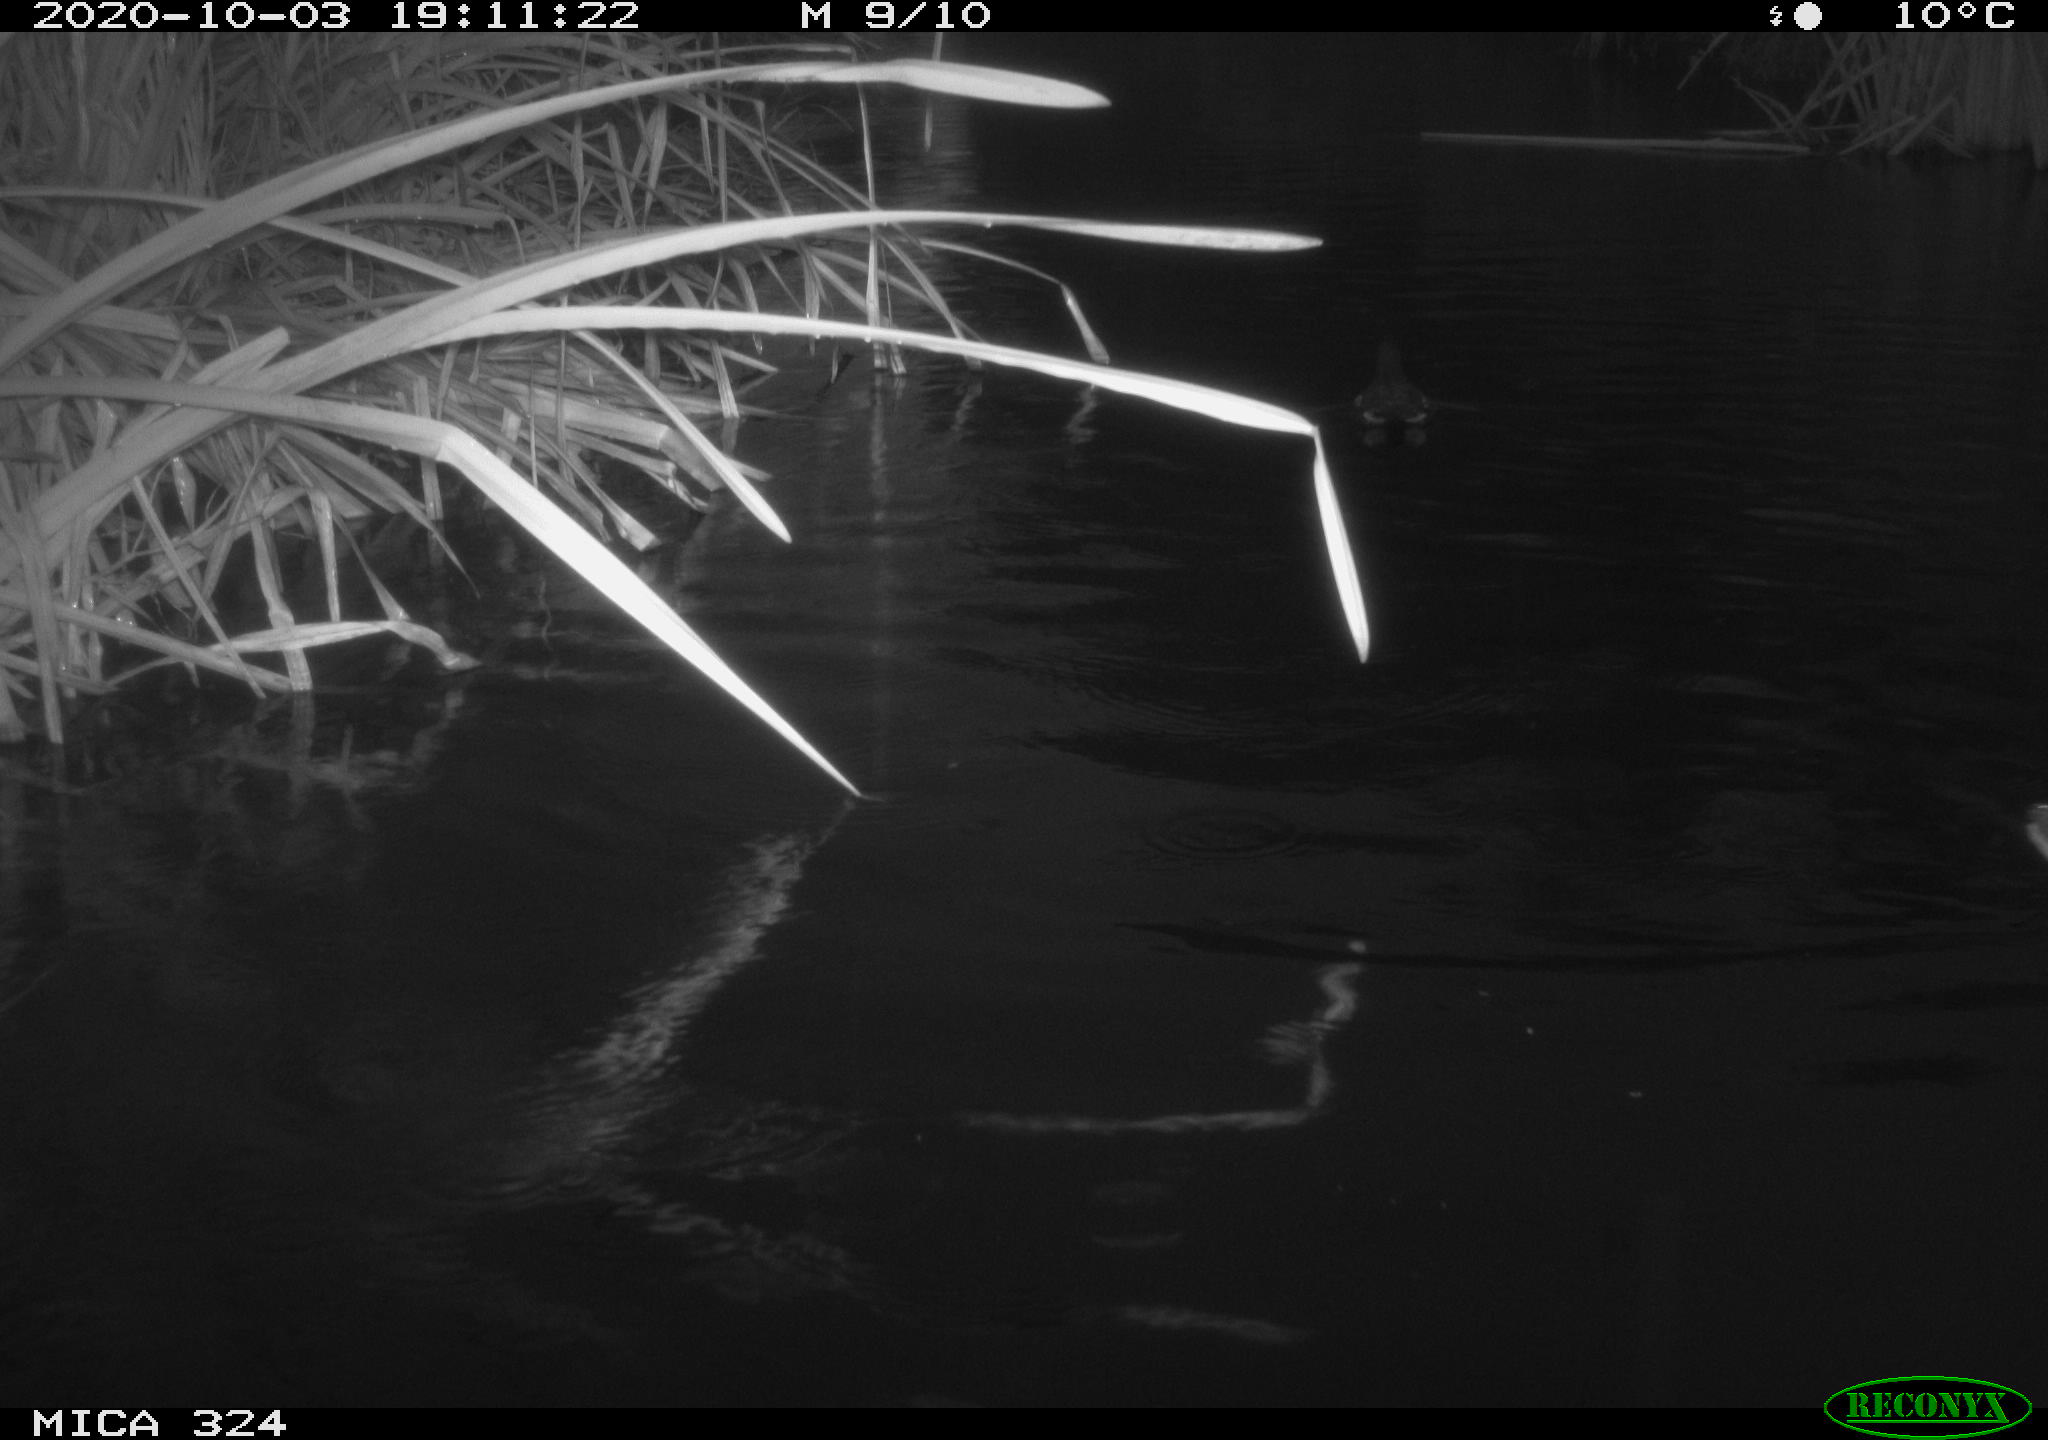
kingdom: Animalia
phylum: Chordata
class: Aves
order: Gruiformes
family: Rallidae
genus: Gallinula
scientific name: Gallinula chloropus
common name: Common moorhen
